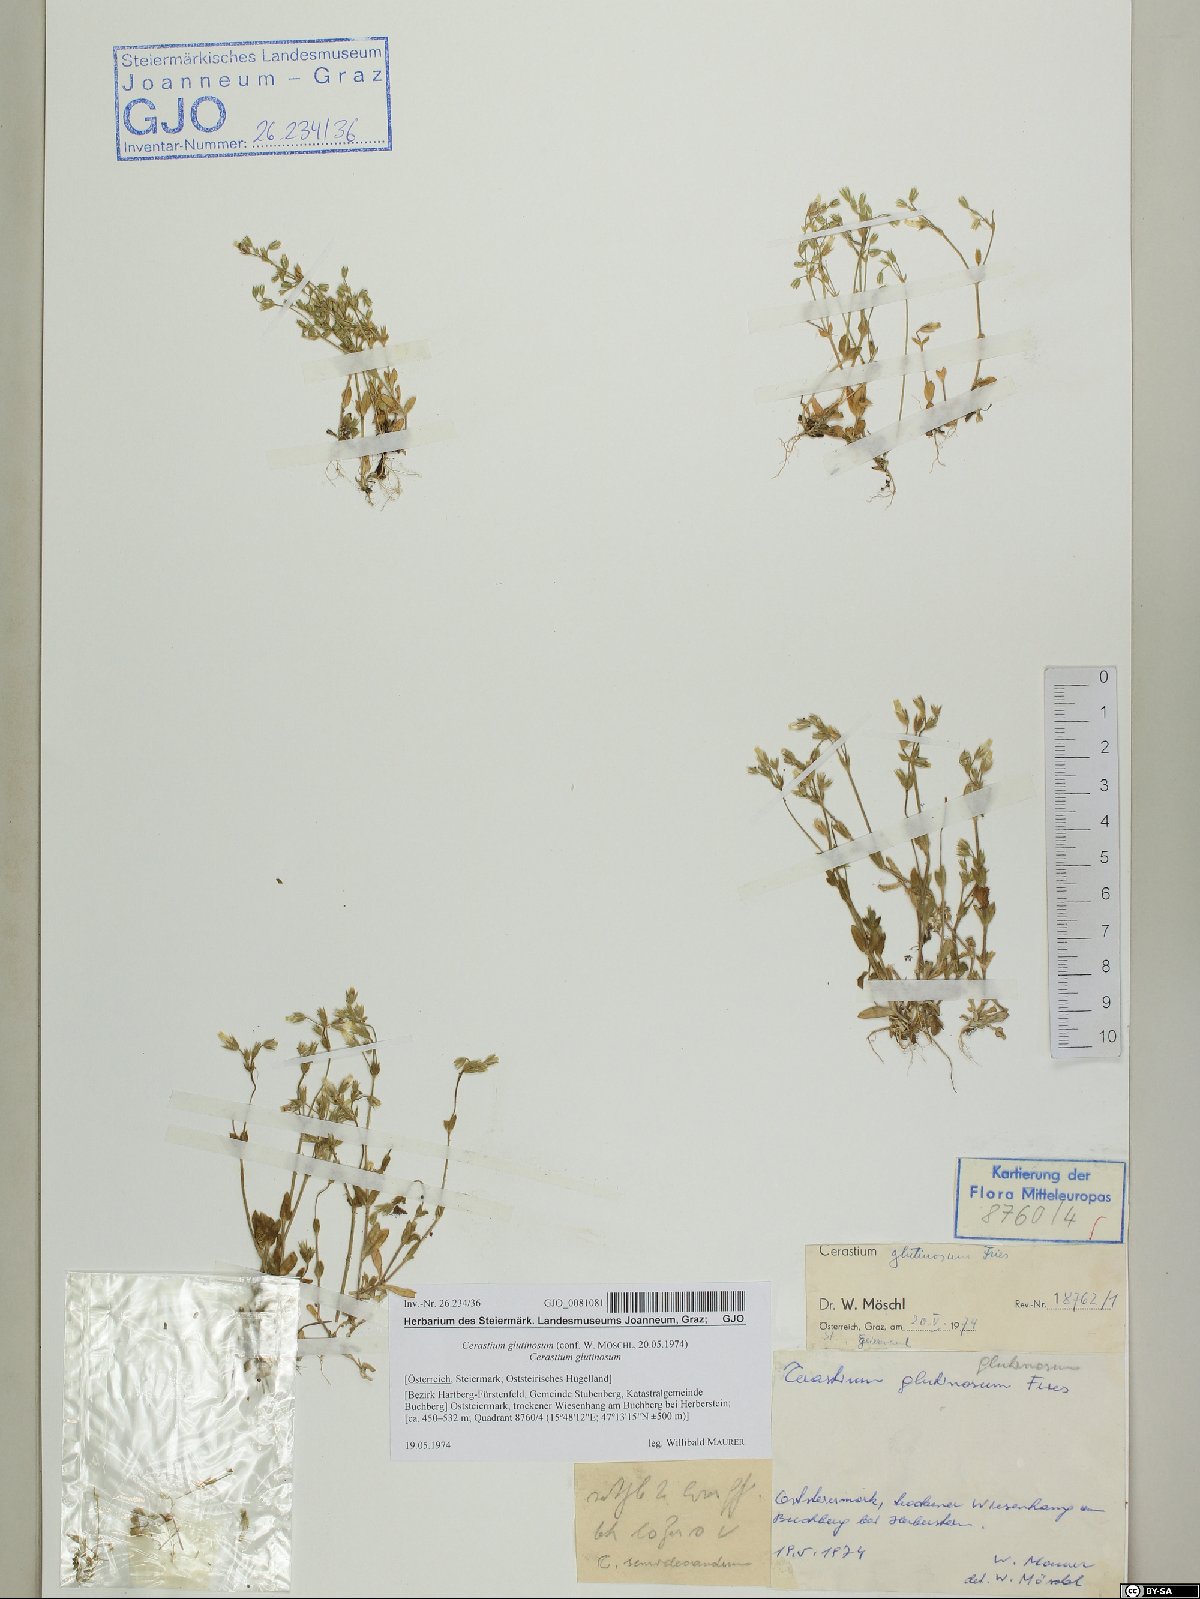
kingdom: Plantae
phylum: Tracheophyta
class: Magnoliopsida
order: Caryophyllales
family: Caryophyllaceae
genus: Cerastium
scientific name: Cerastium glutinosum
